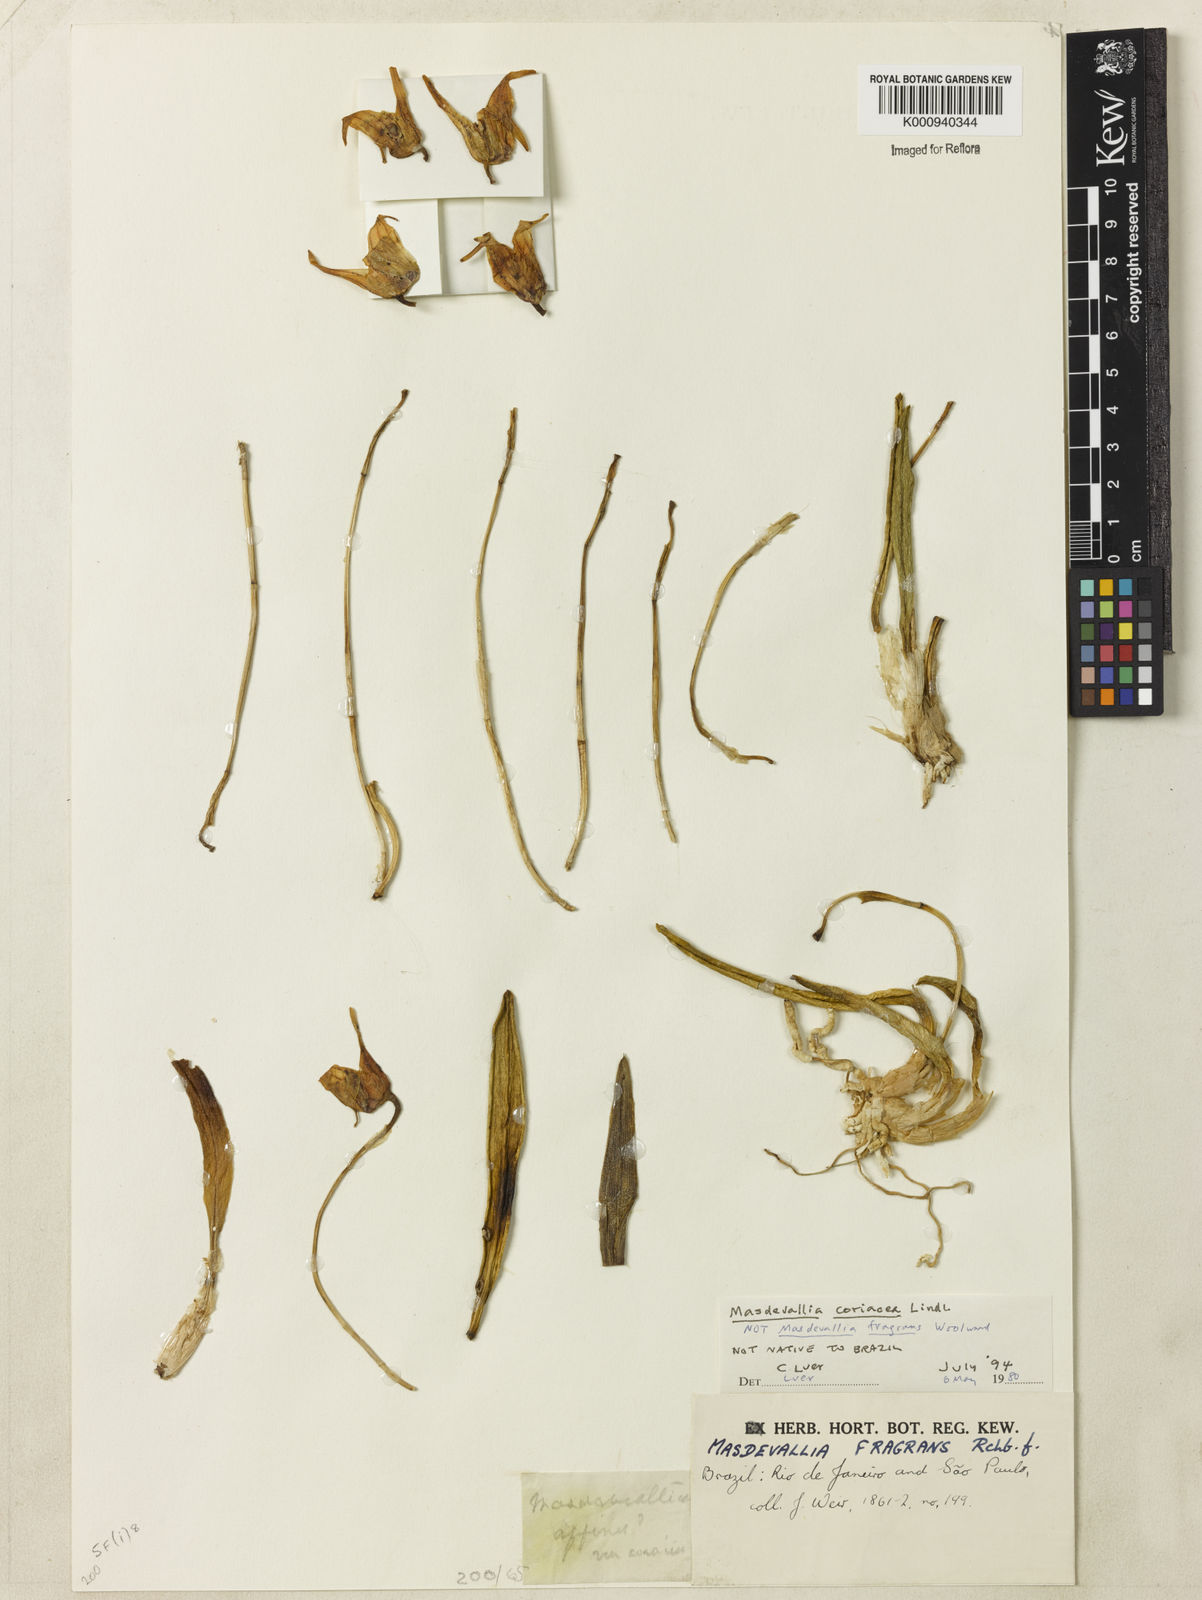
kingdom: Plantae
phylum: Tracheophyta
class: Liliopsida
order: Asparagales
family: Orchidaceae
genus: Masdevallia
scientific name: Masdevallia coriacea
